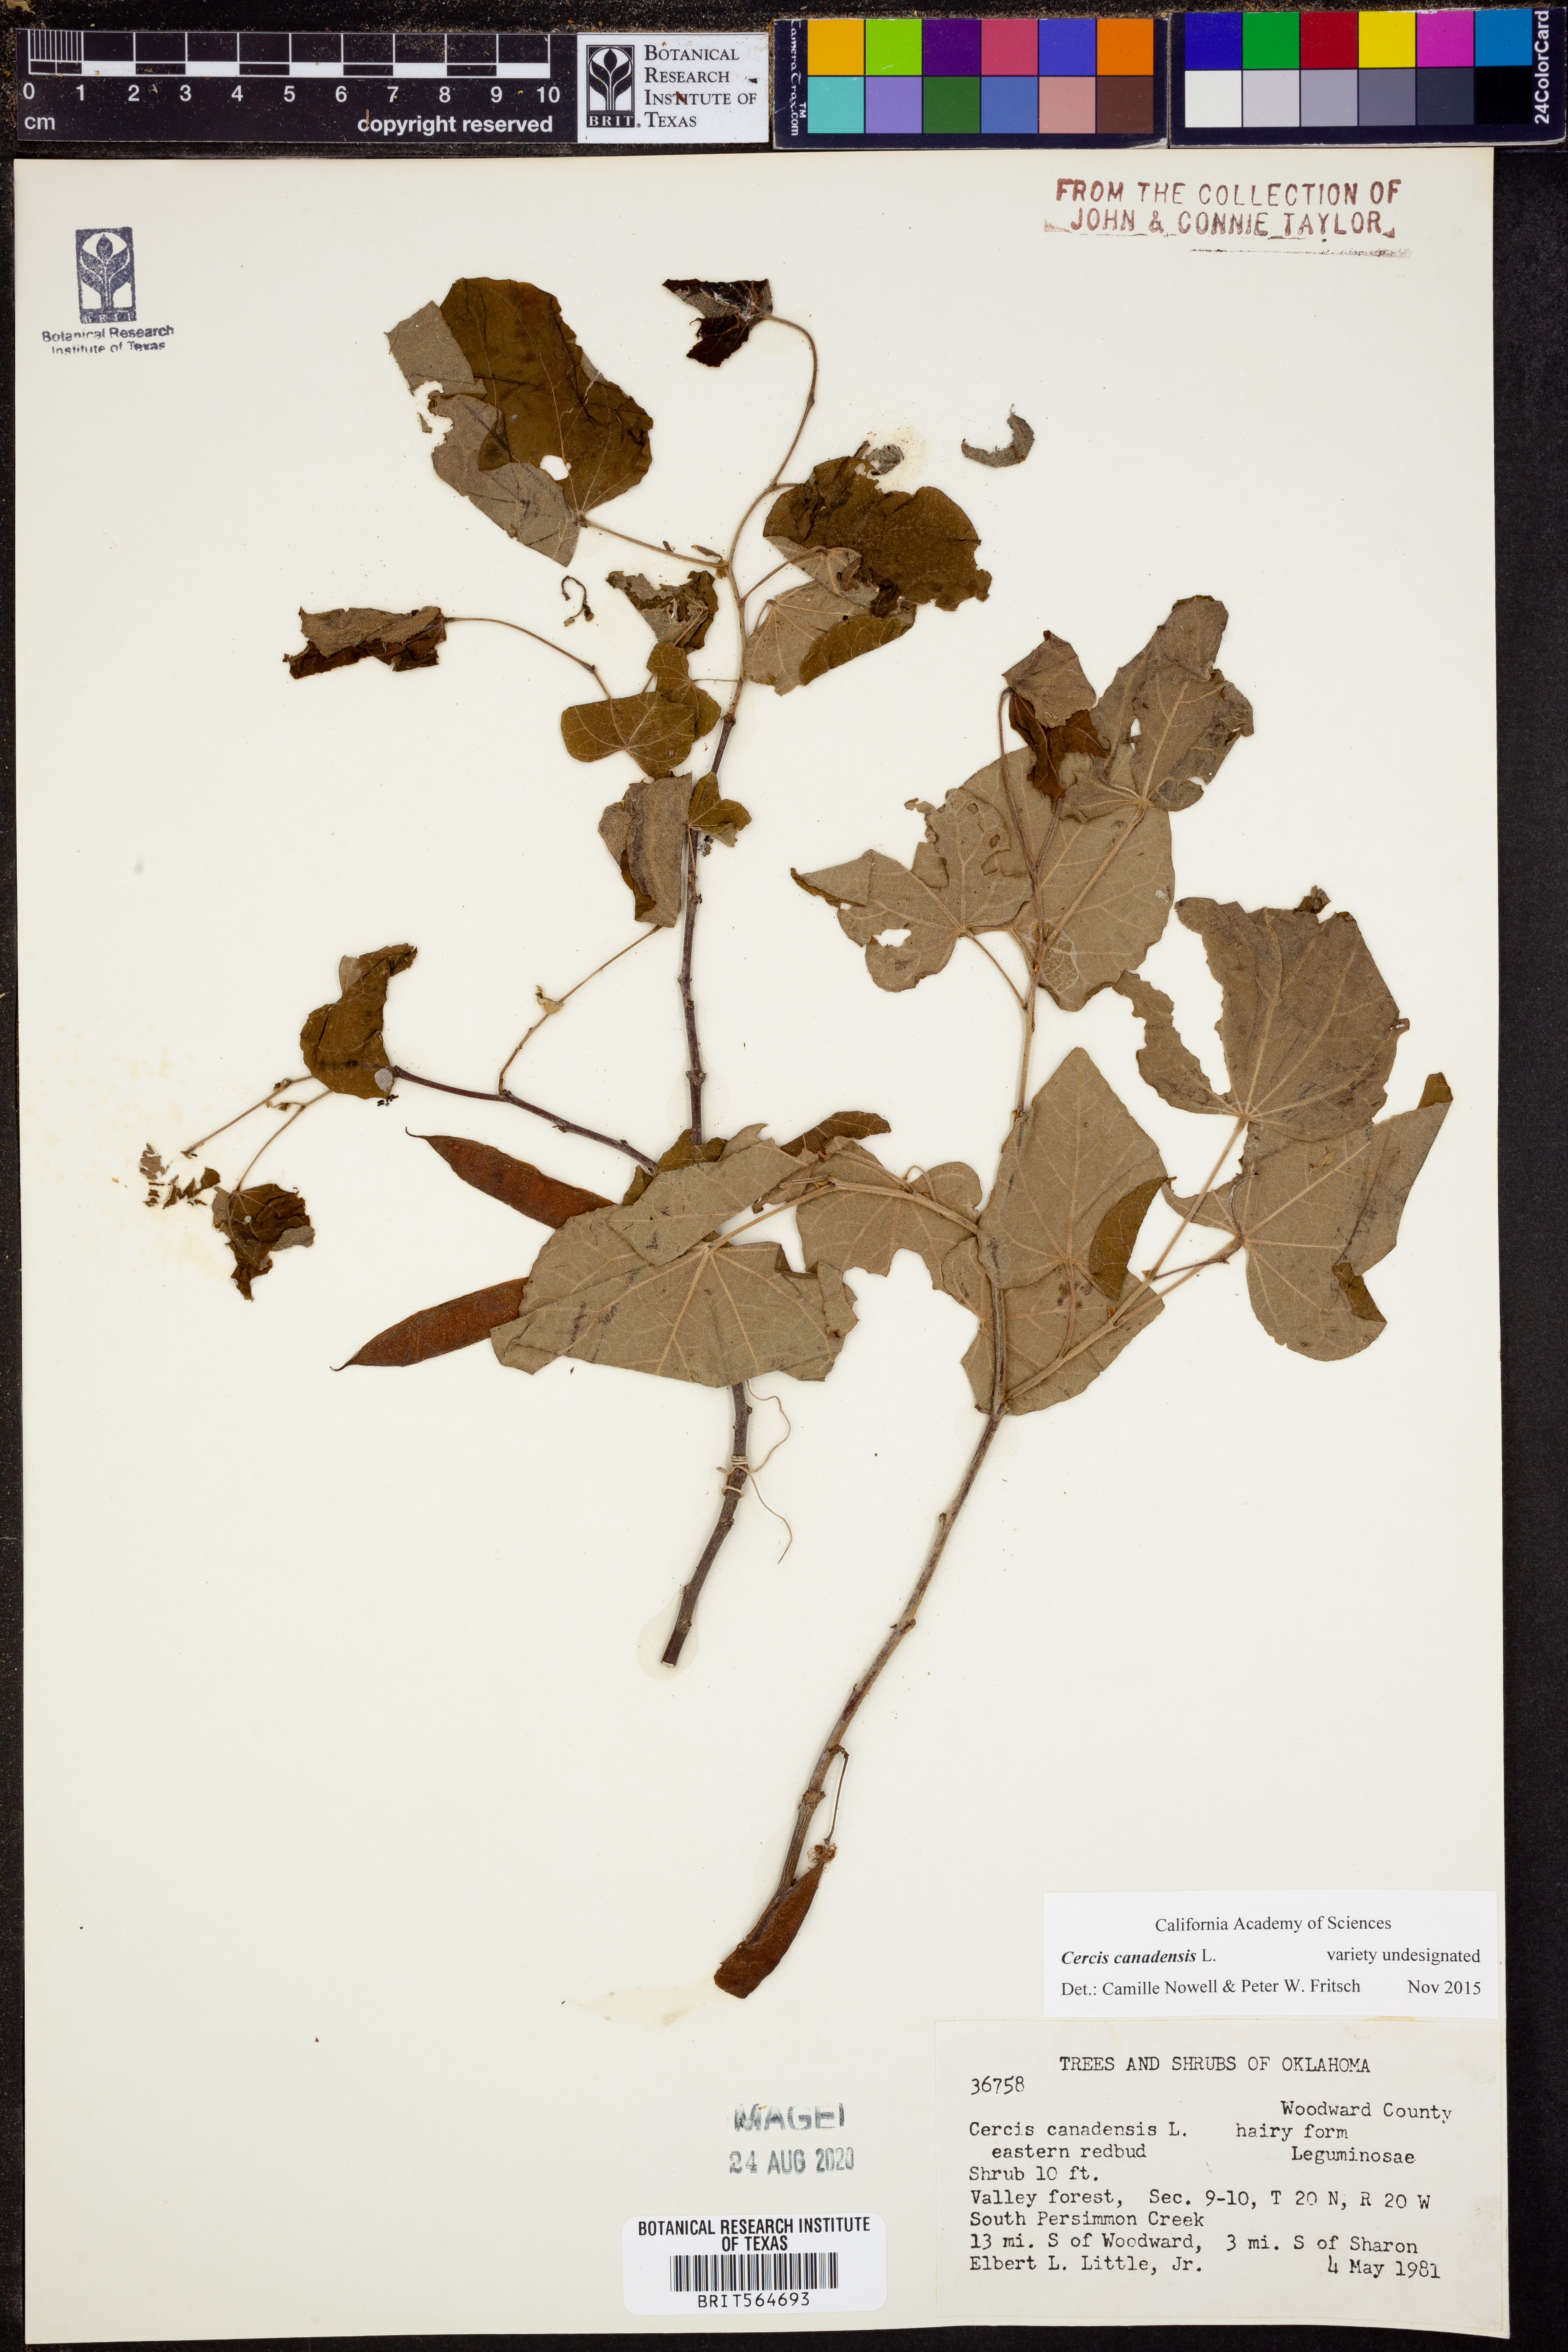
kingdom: Plantae
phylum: Tracheophyta
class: Magnoliopsida
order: Fabales
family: Fabaceae
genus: Cercis
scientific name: Cercis canadensis
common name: Eastern redbud
